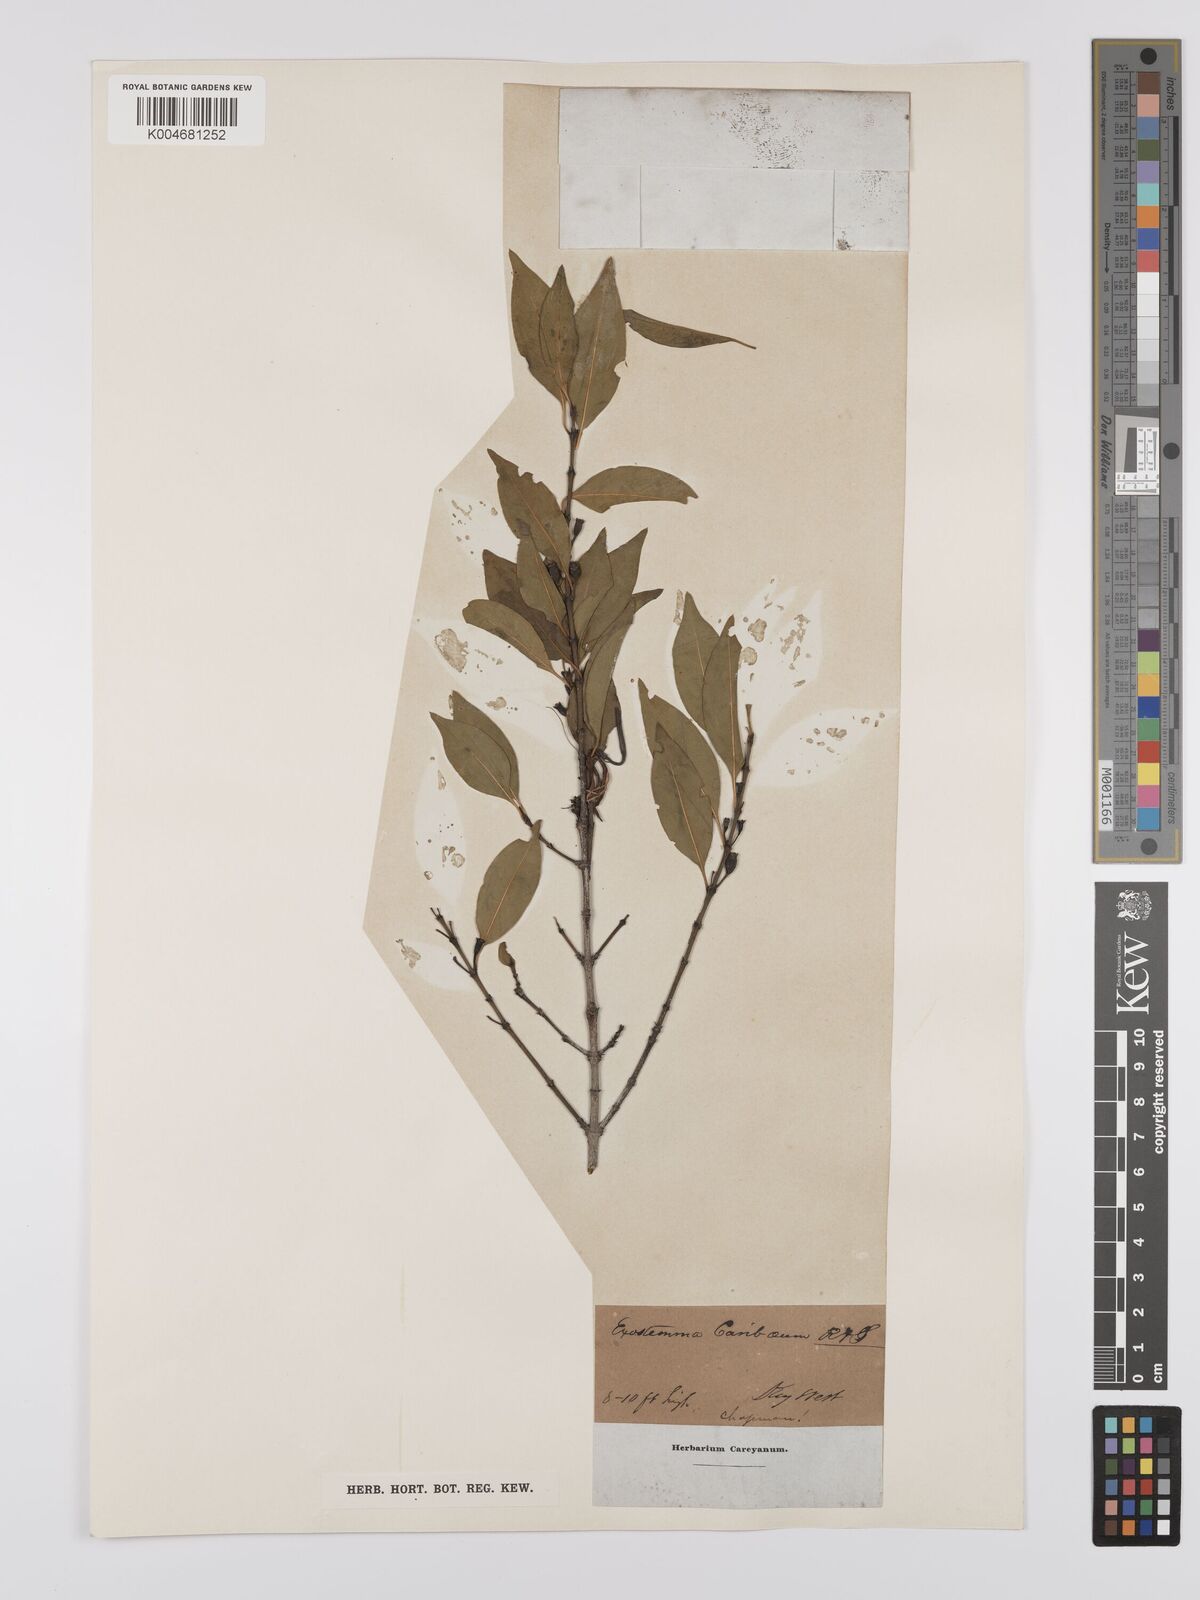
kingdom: Plantae
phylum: Tracheophyta
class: Magnoliopsida
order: Gentianales
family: Rubiaceae
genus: Exostema
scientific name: Exostema caribaeum
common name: Princewood
